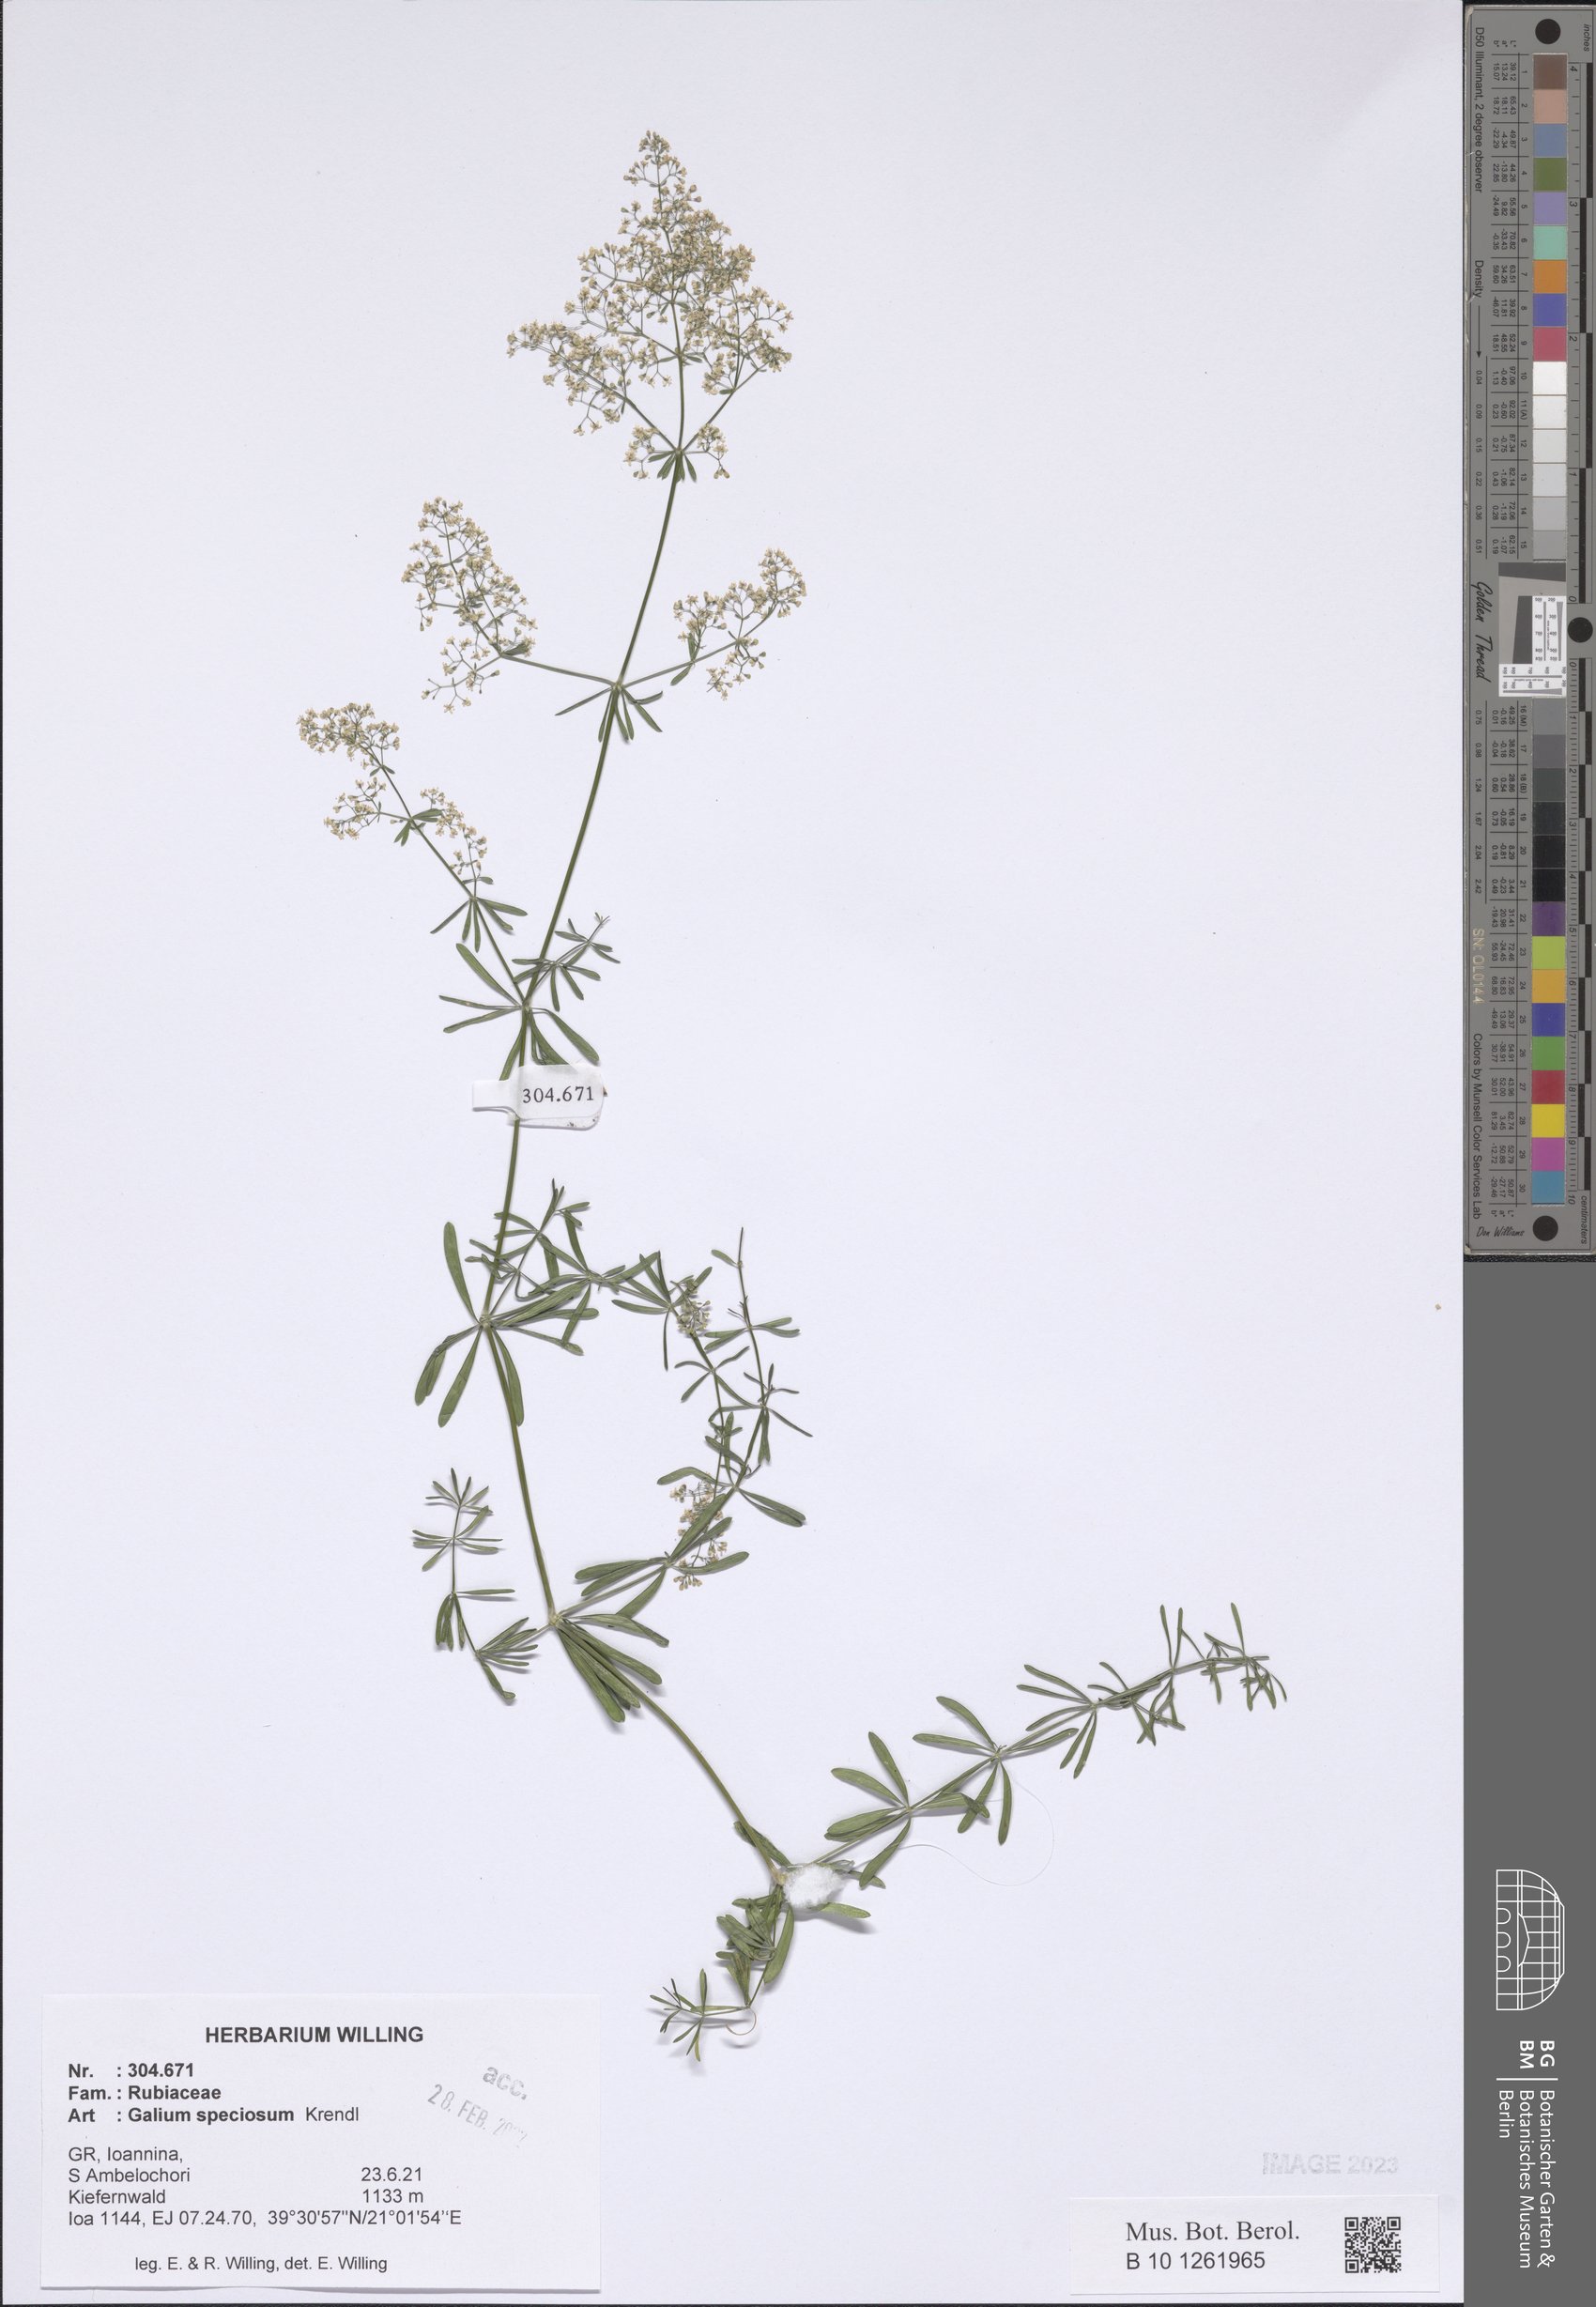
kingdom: Plantae
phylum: Tracheophyta
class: Magnoliopsida
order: Gentianales
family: Rubiaceae
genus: Galium
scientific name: Galium speciosum
